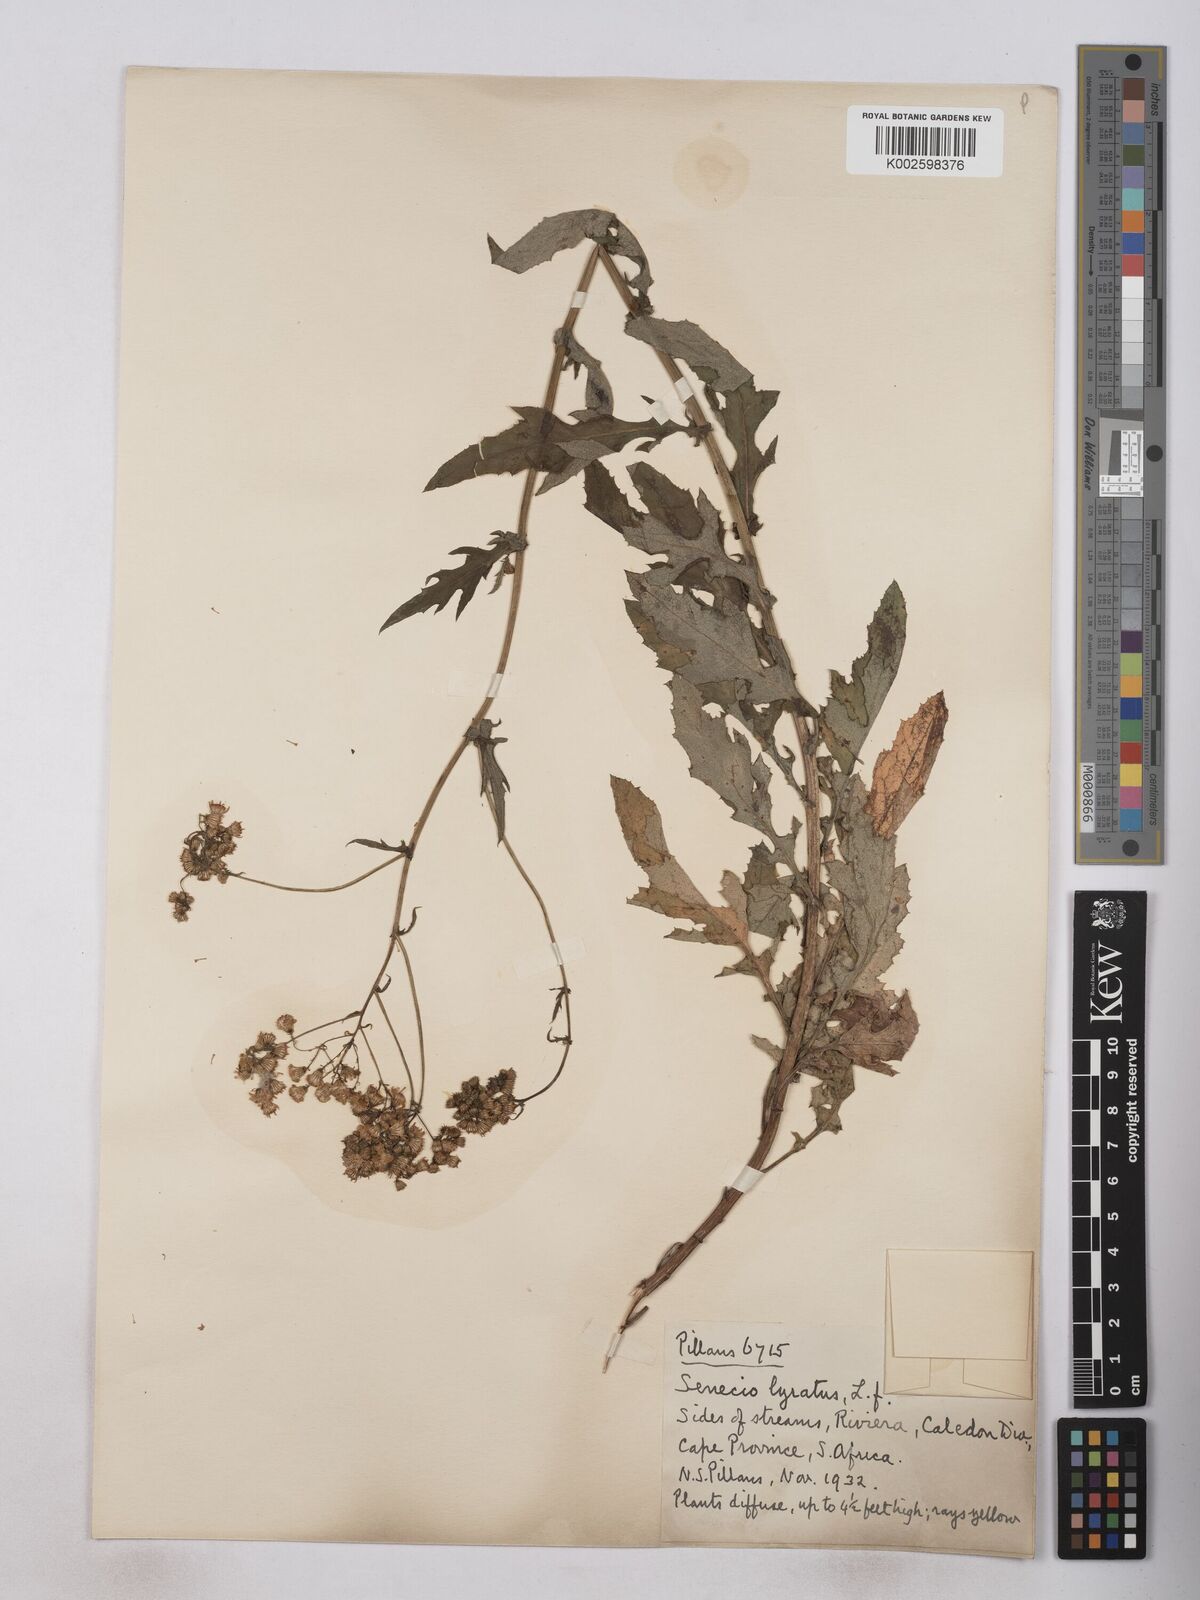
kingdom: Plantae
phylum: Tracheophyta
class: Magnoliopsida
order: Asterales
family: Asteraceae
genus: Senecio
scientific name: Senecio anapetes
